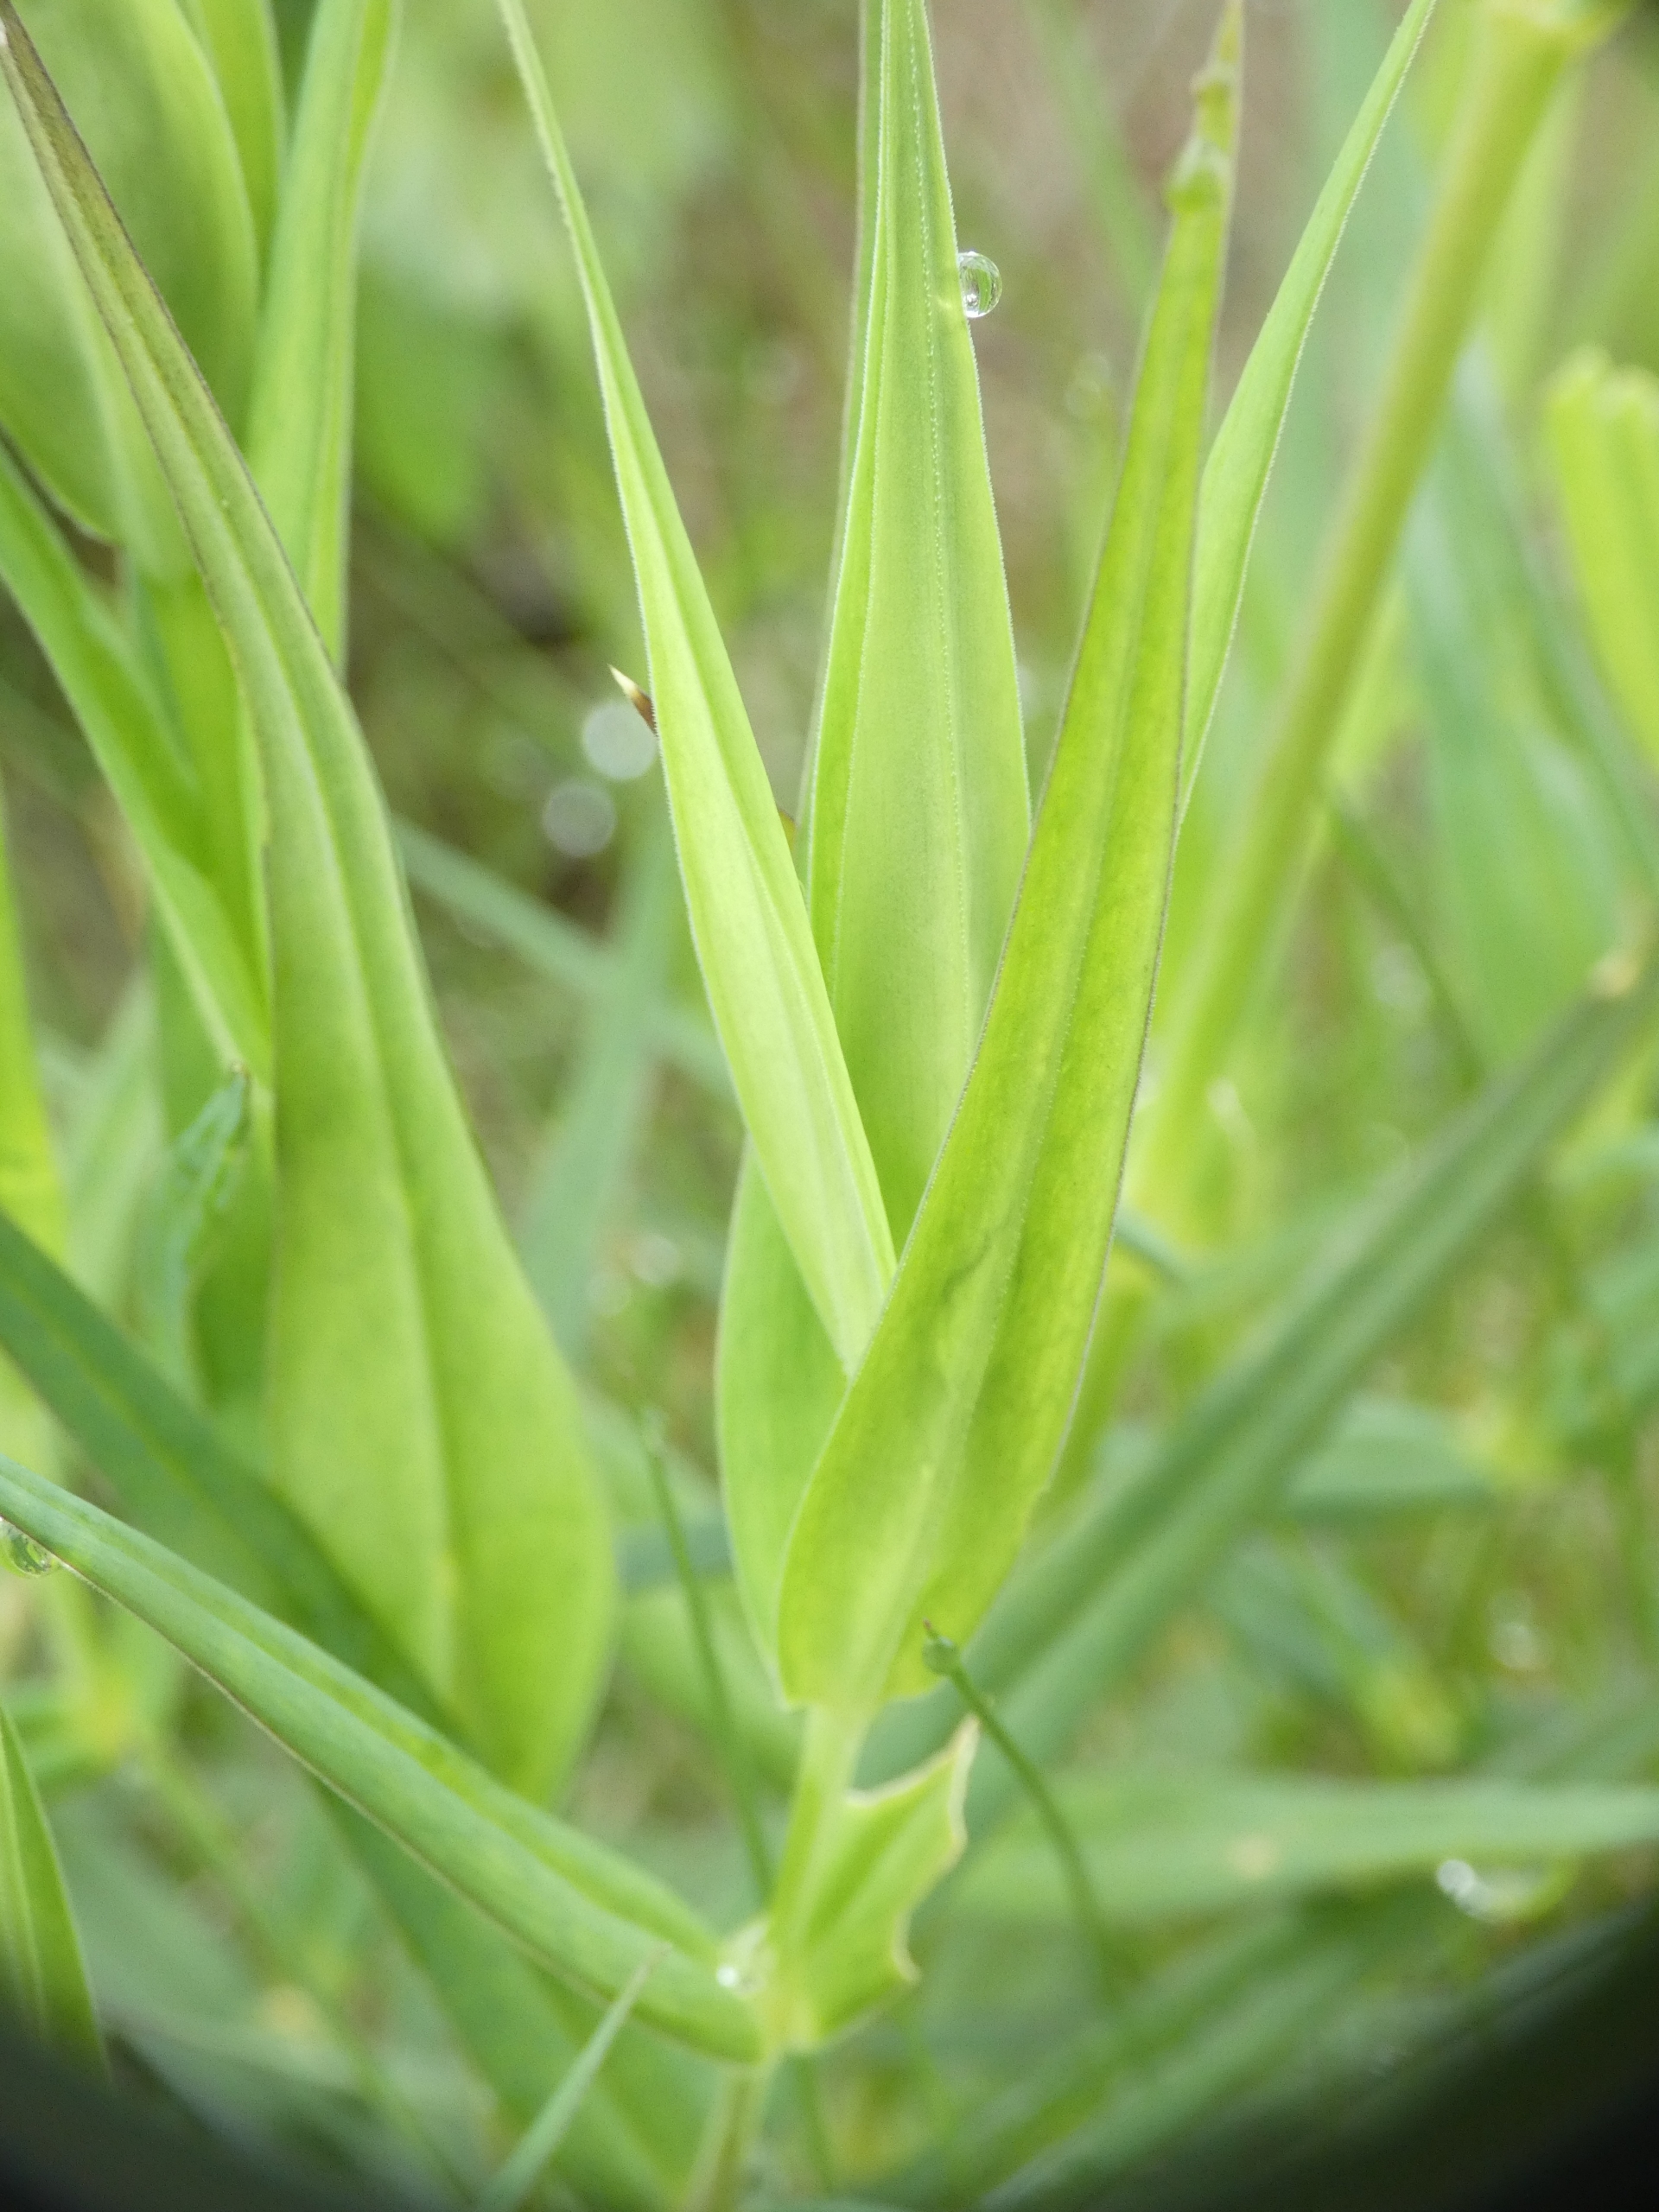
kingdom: Plantae
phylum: Tracheophyta
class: Magnoliopsida
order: Caryophyllales
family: Caryophyllaceae
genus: Rabelera
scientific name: Rabelera holostea
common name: Stor fladstjerne
